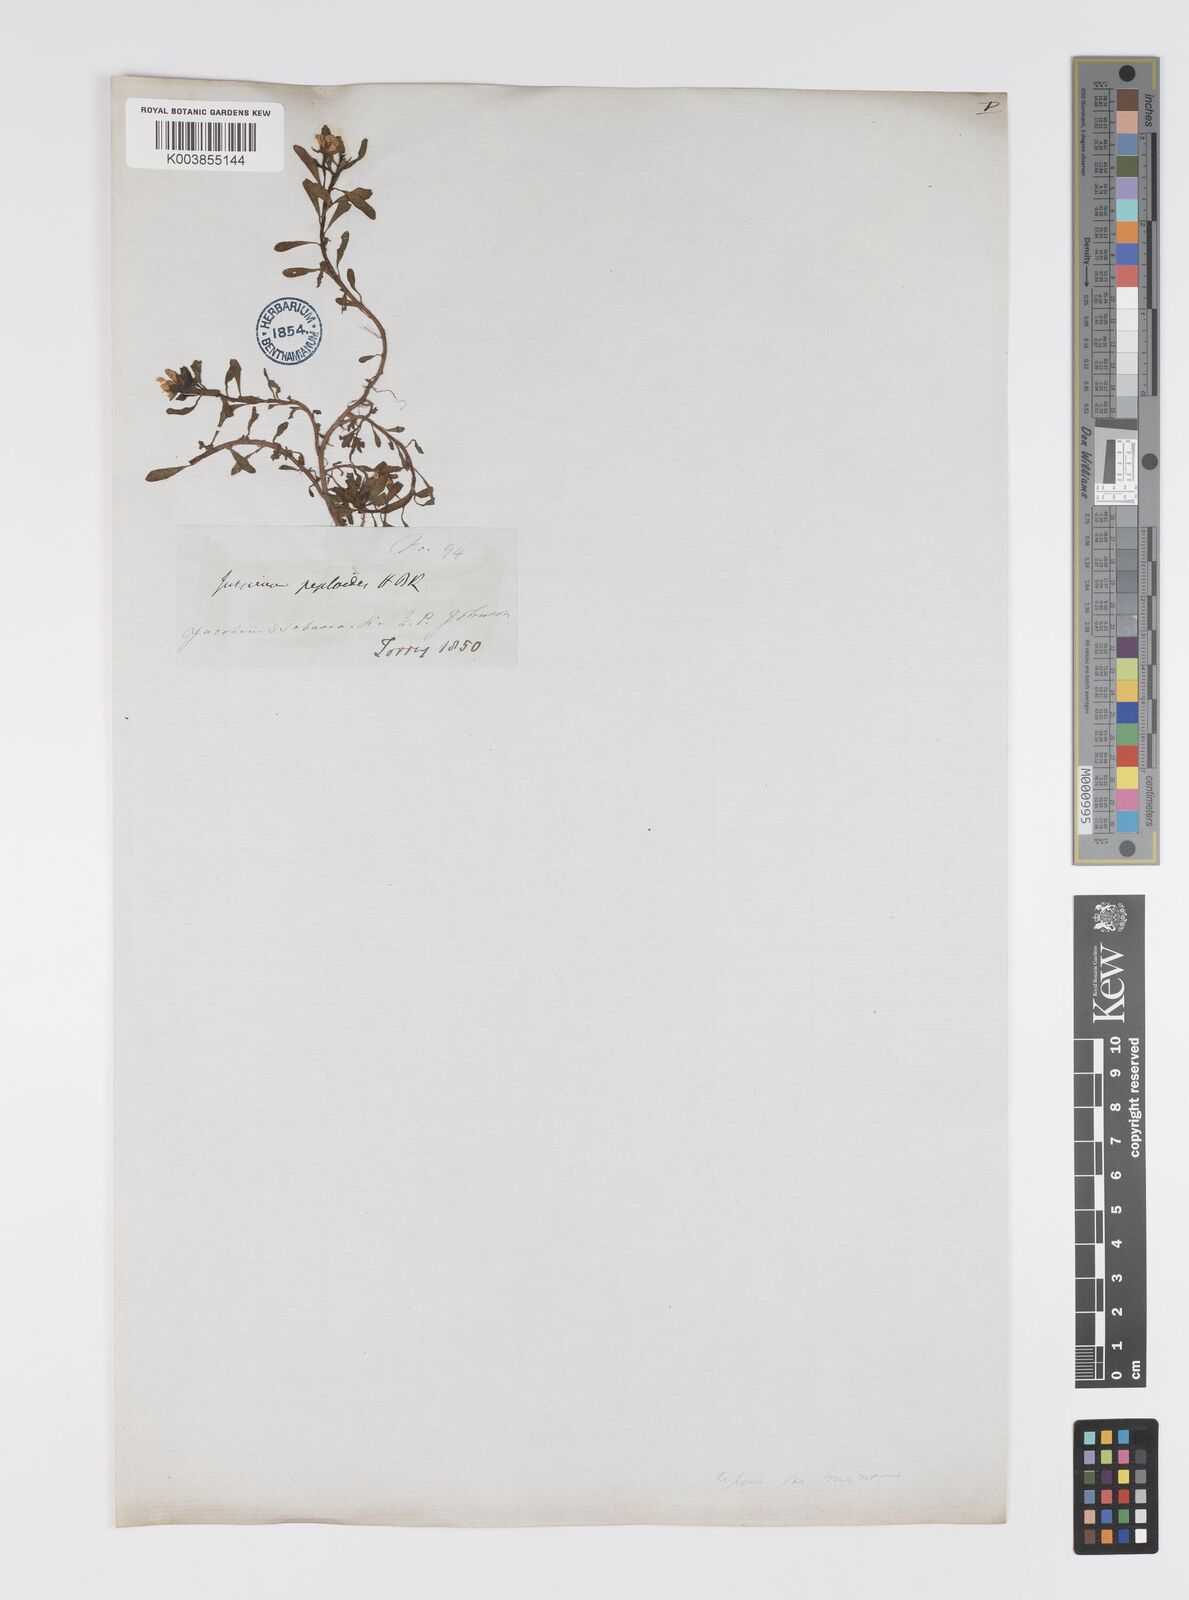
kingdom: Plantae
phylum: Tracheophyta
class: Magnoliopsida
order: Myrtales
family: Onagraceae
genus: Ludwigia
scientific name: Ludwigia adscendens
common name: Creeping water primrose
